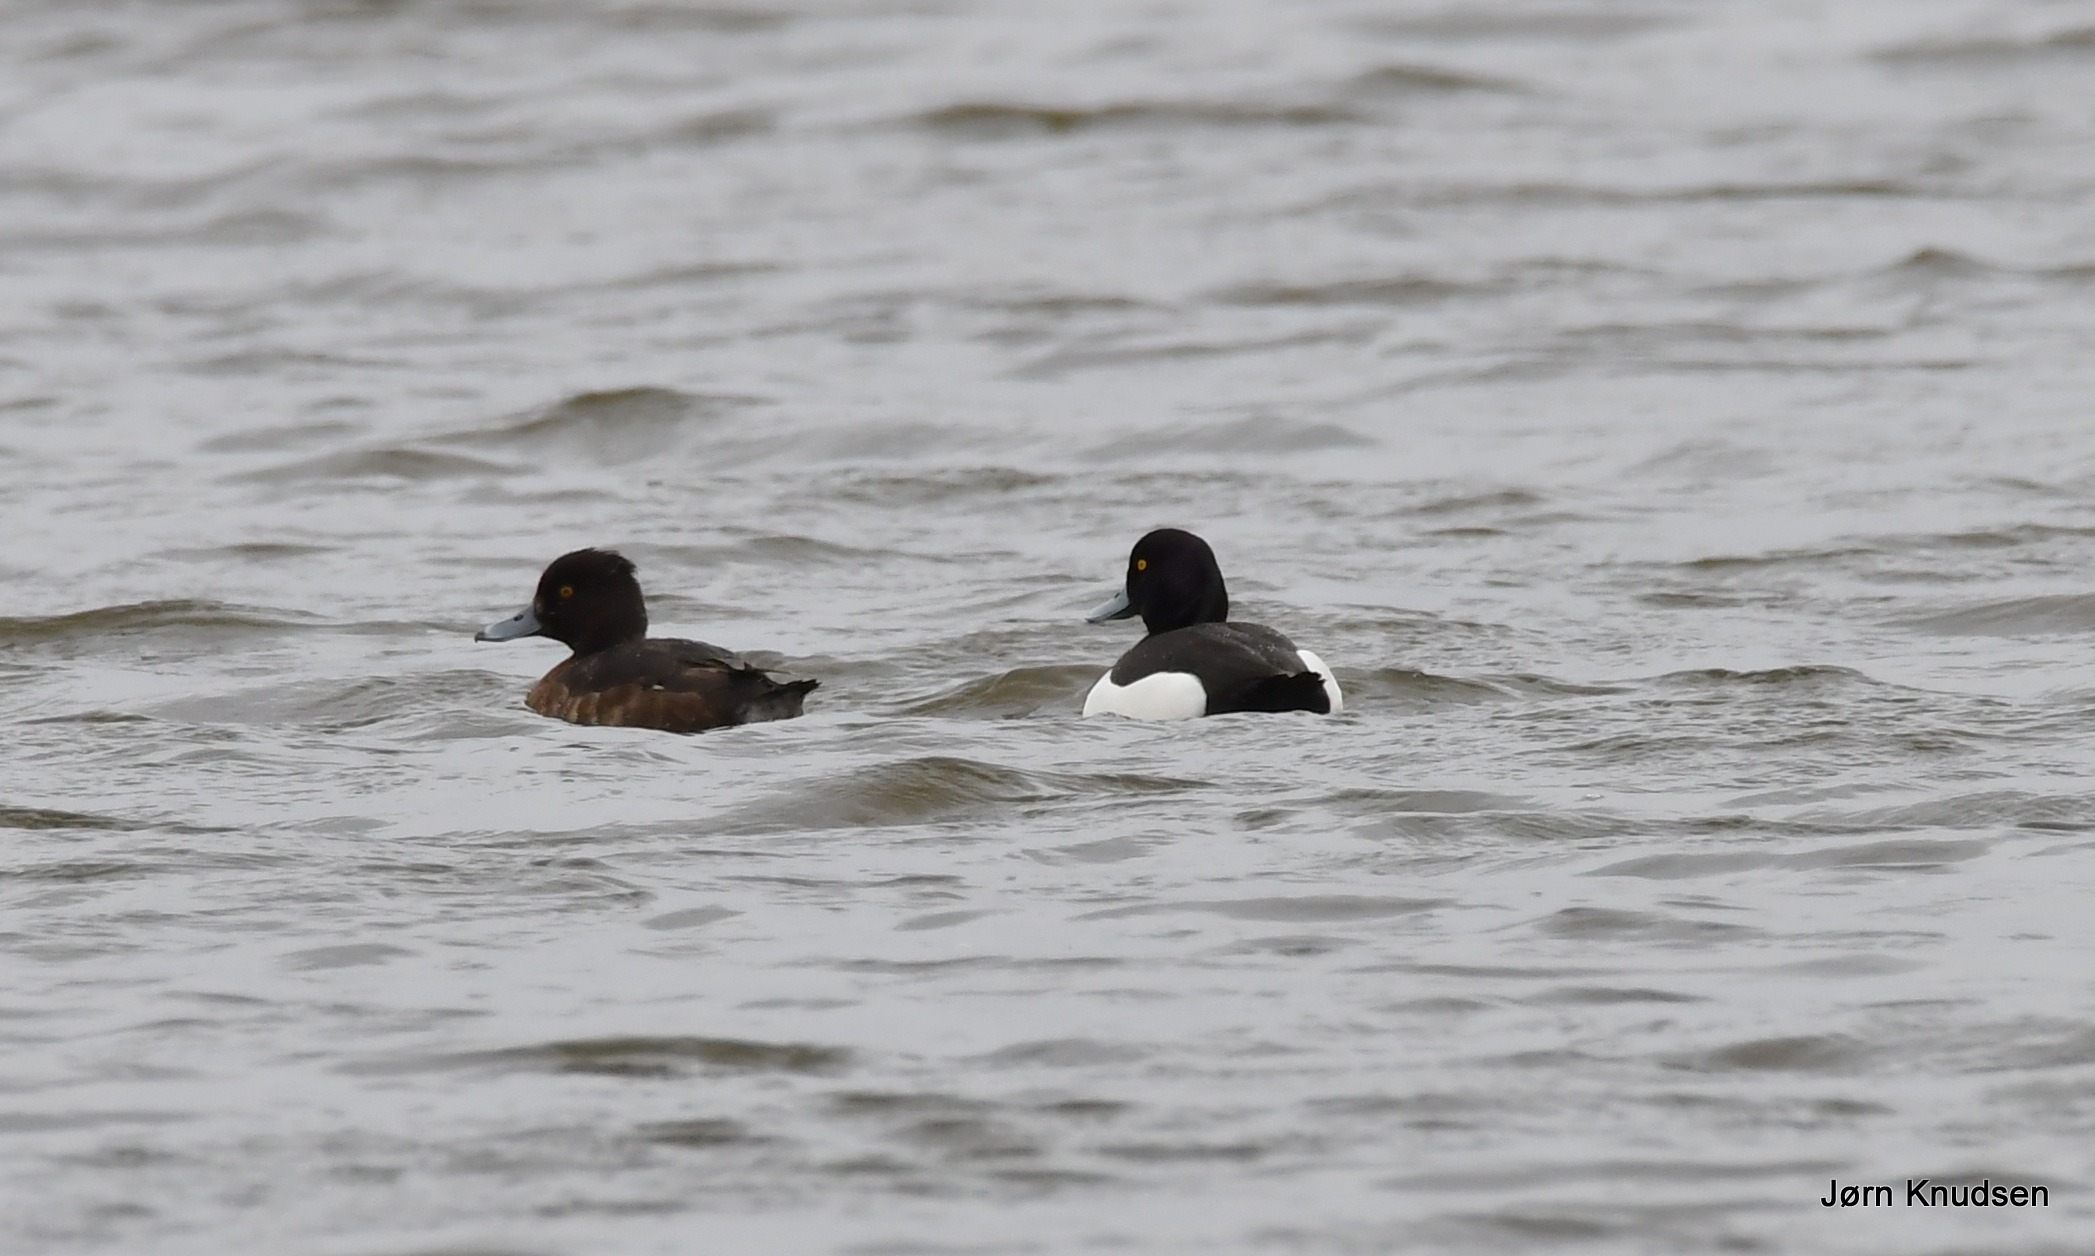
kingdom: Animalia
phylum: Chordata
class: Aves
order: Anseriformes
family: Anatidae
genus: Aythya
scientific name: Aythya fuligula
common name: Troldand
